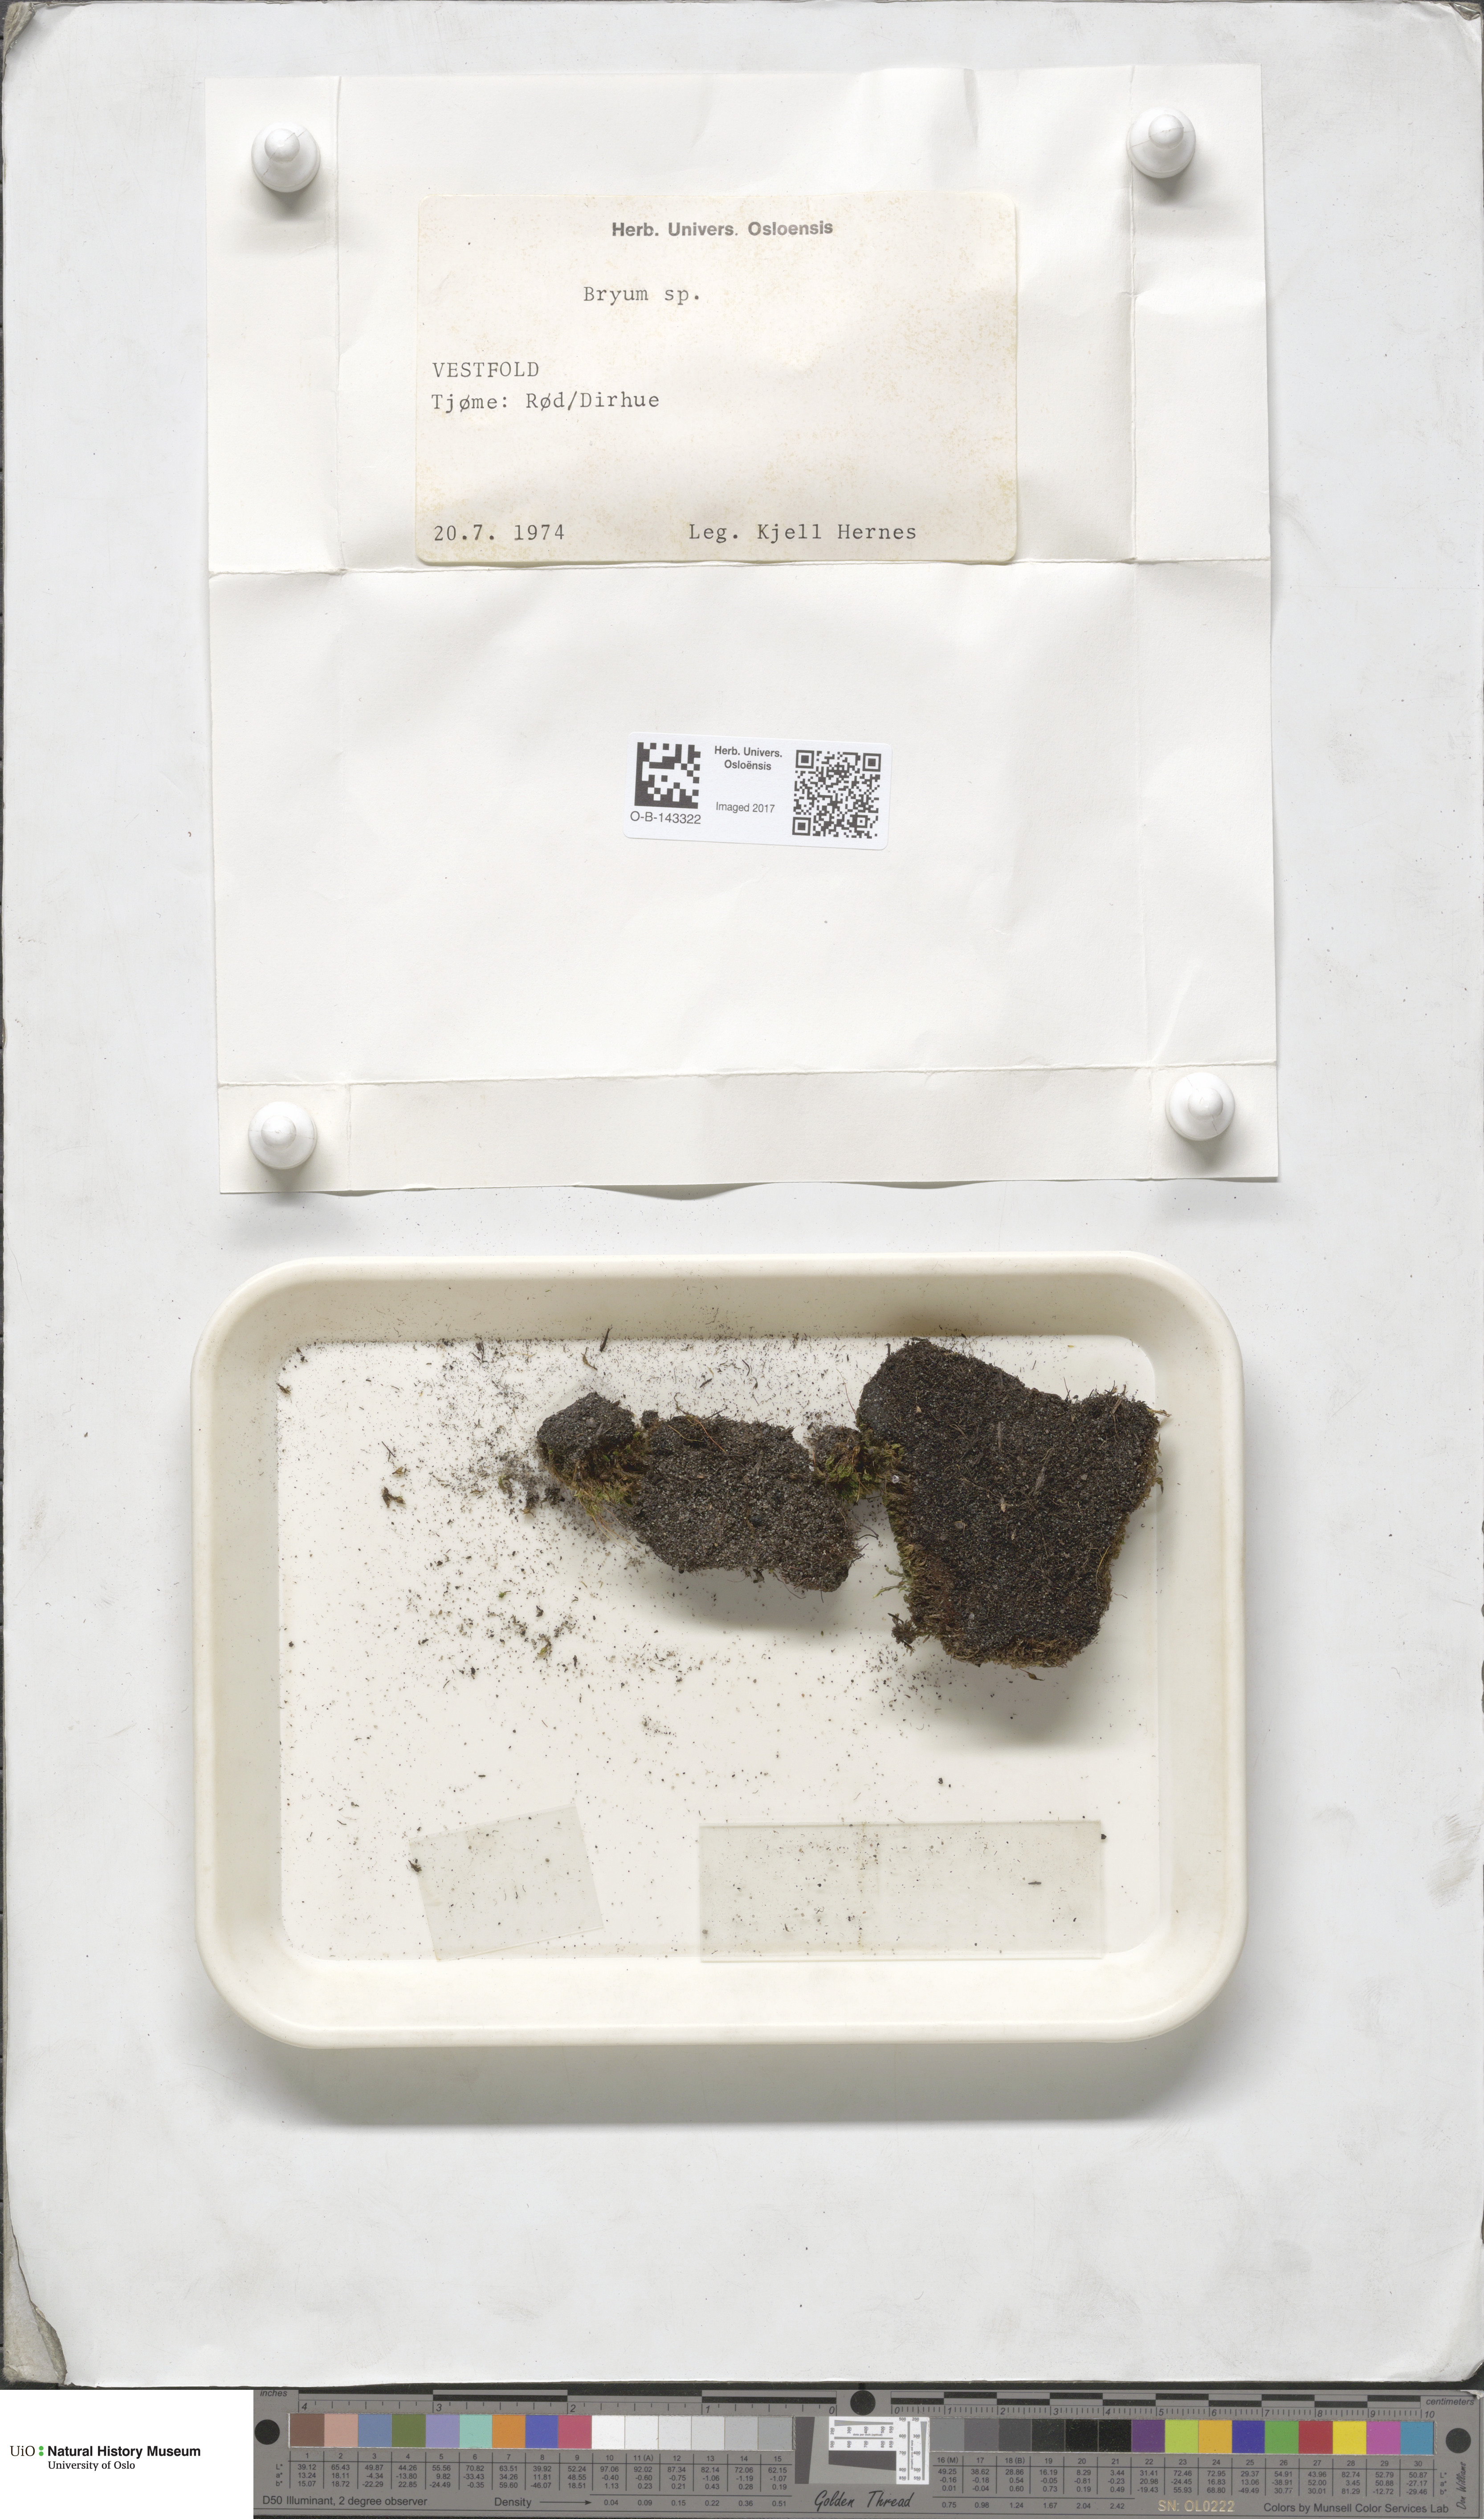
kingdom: Plantae
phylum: Bryophyta
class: Bryopsida
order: Bryales
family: Bryaceae
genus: Bryum
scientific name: Bryum
